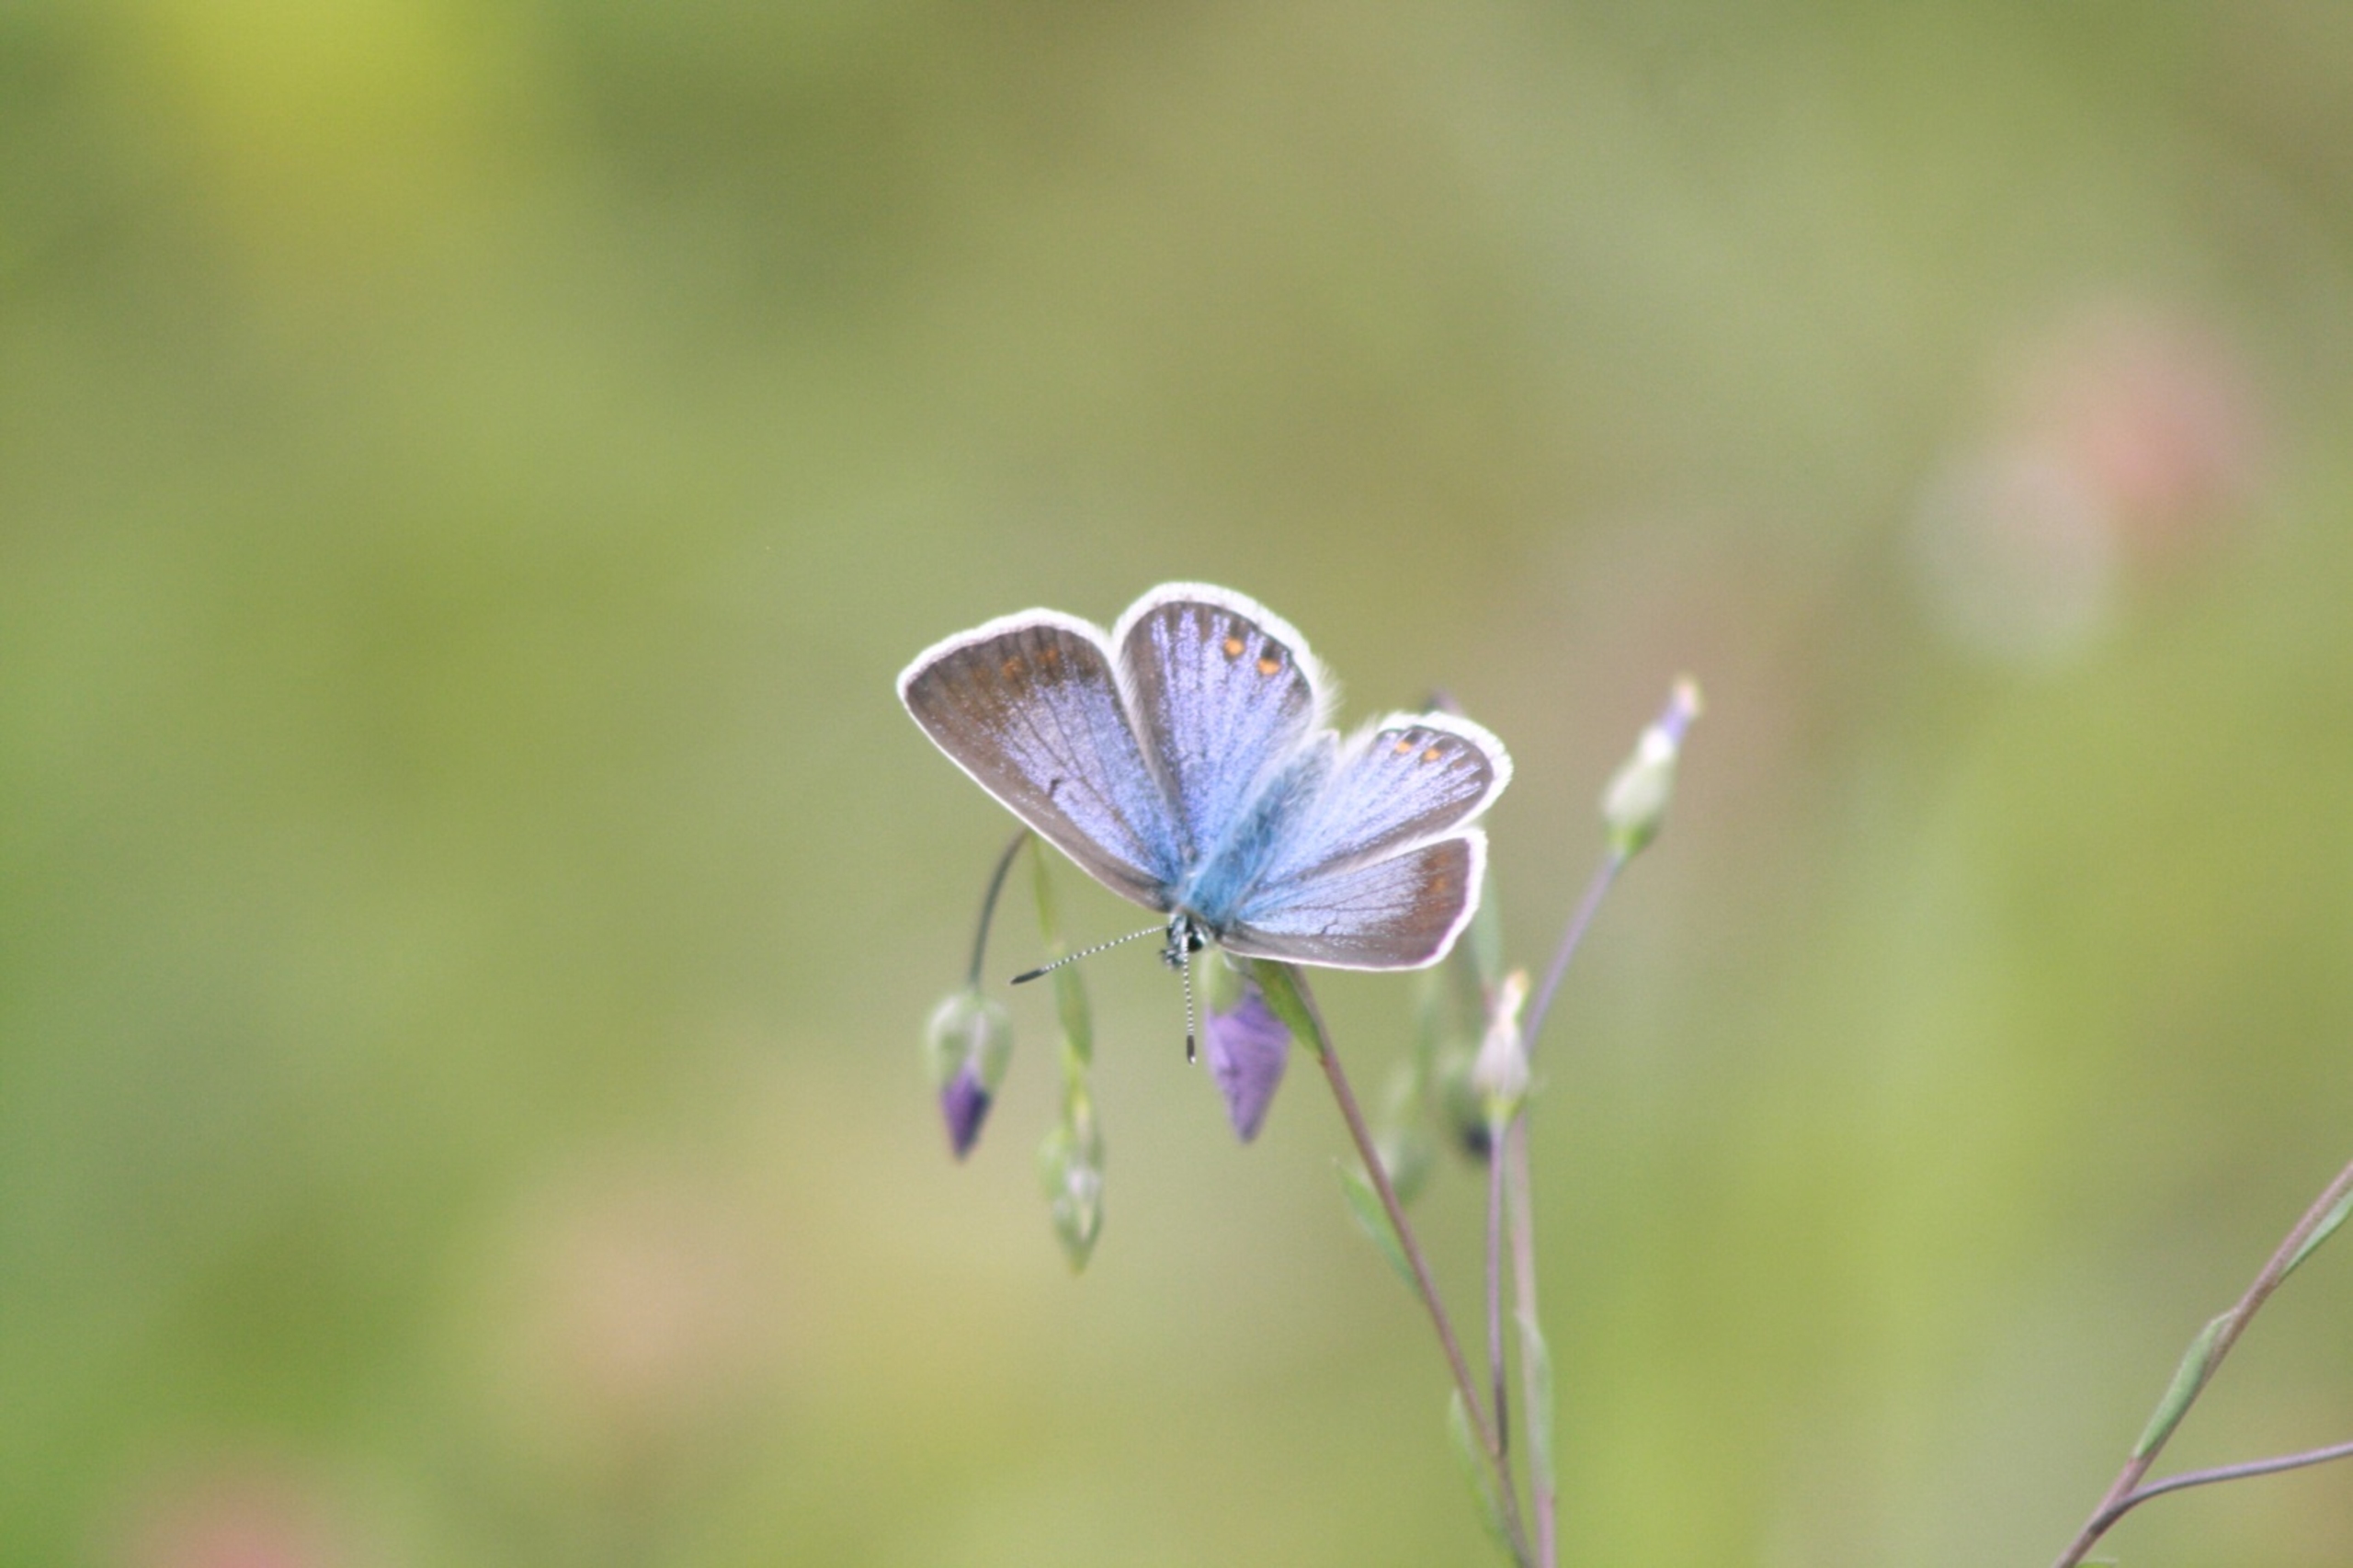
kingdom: Animalia
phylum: Arthropoda
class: Insecta
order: Lepidoptera
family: Lycaenidae
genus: Polyommatus
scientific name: Polyommatus icarus
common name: Almindelig blåfugl
